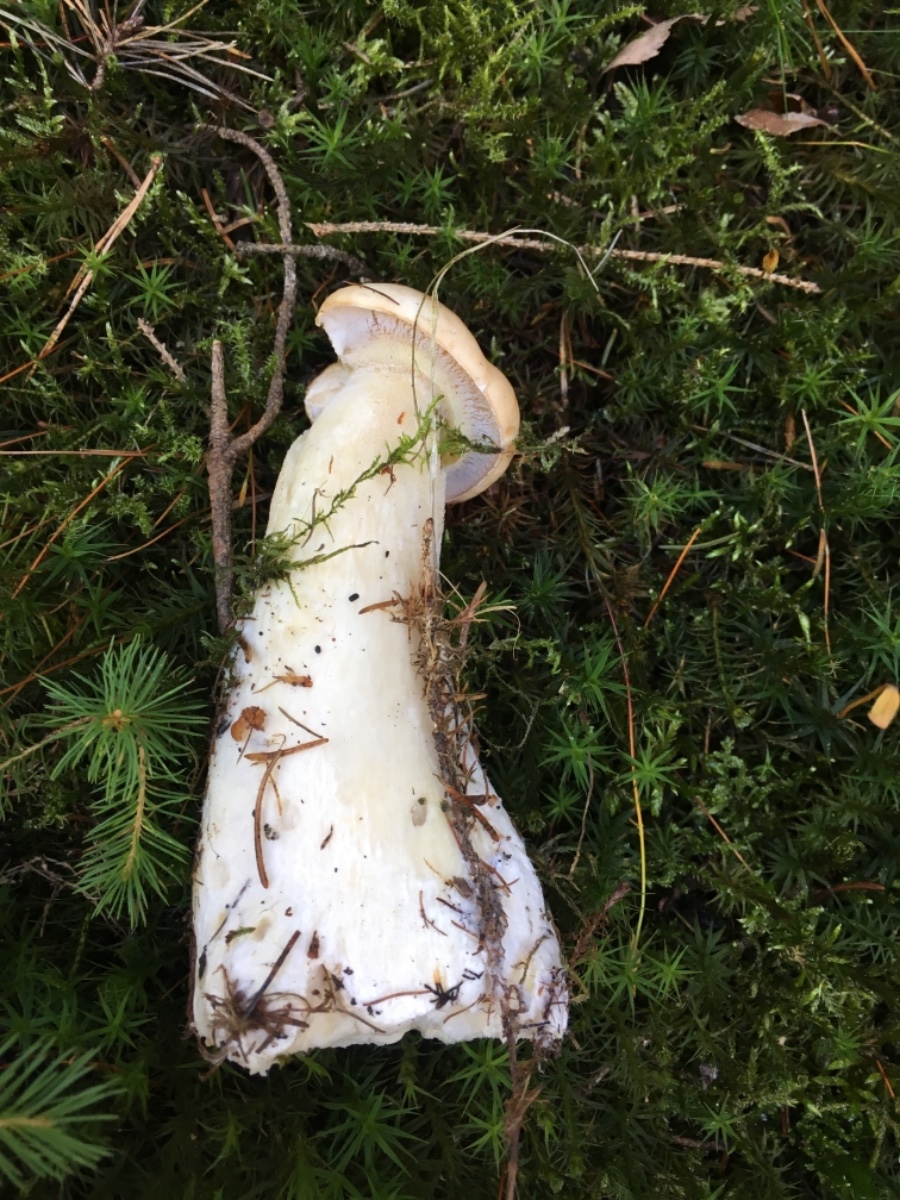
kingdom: Fungi
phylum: Basidiomycota
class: Agaricomycetes
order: Boletales
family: Boletaceae
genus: Boletus
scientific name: Boletus edulis
